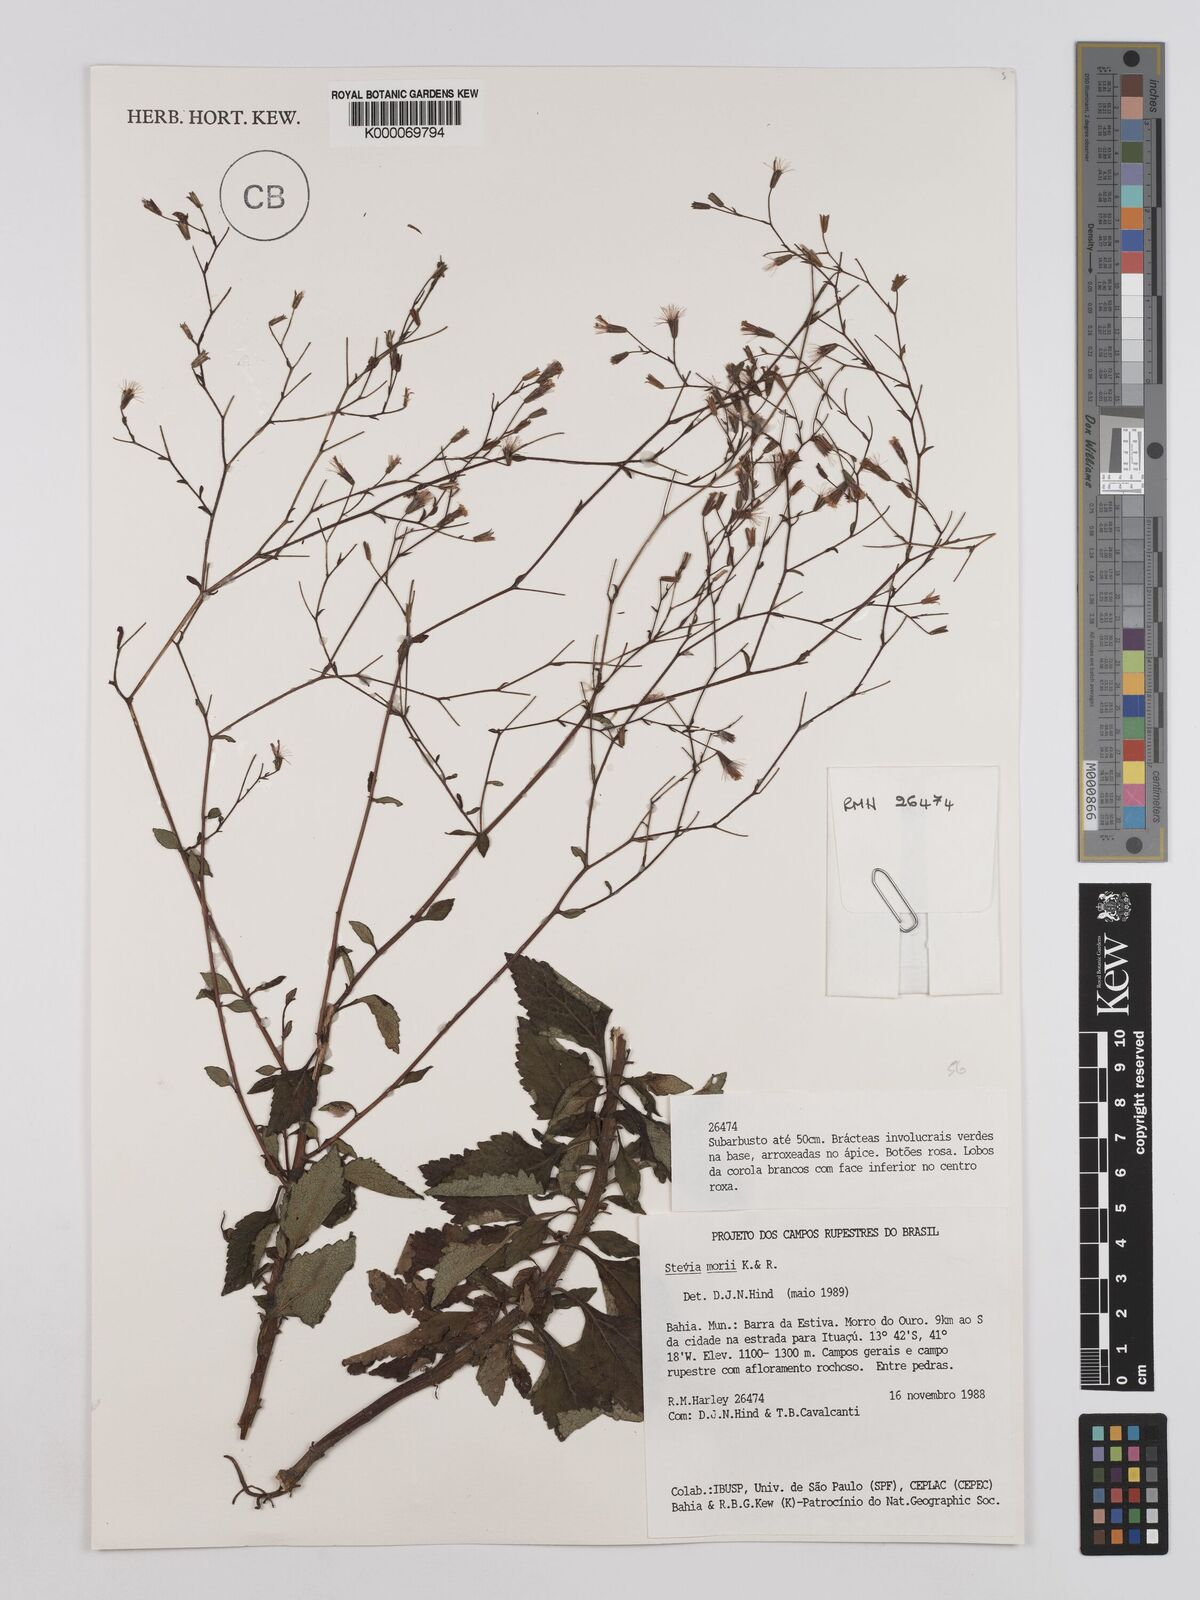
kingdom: Plantae
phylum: Tracheophyta
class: Magnoliopsida
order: Asterales
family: Asteraceae
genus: Stevia
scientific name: Stevia morii
